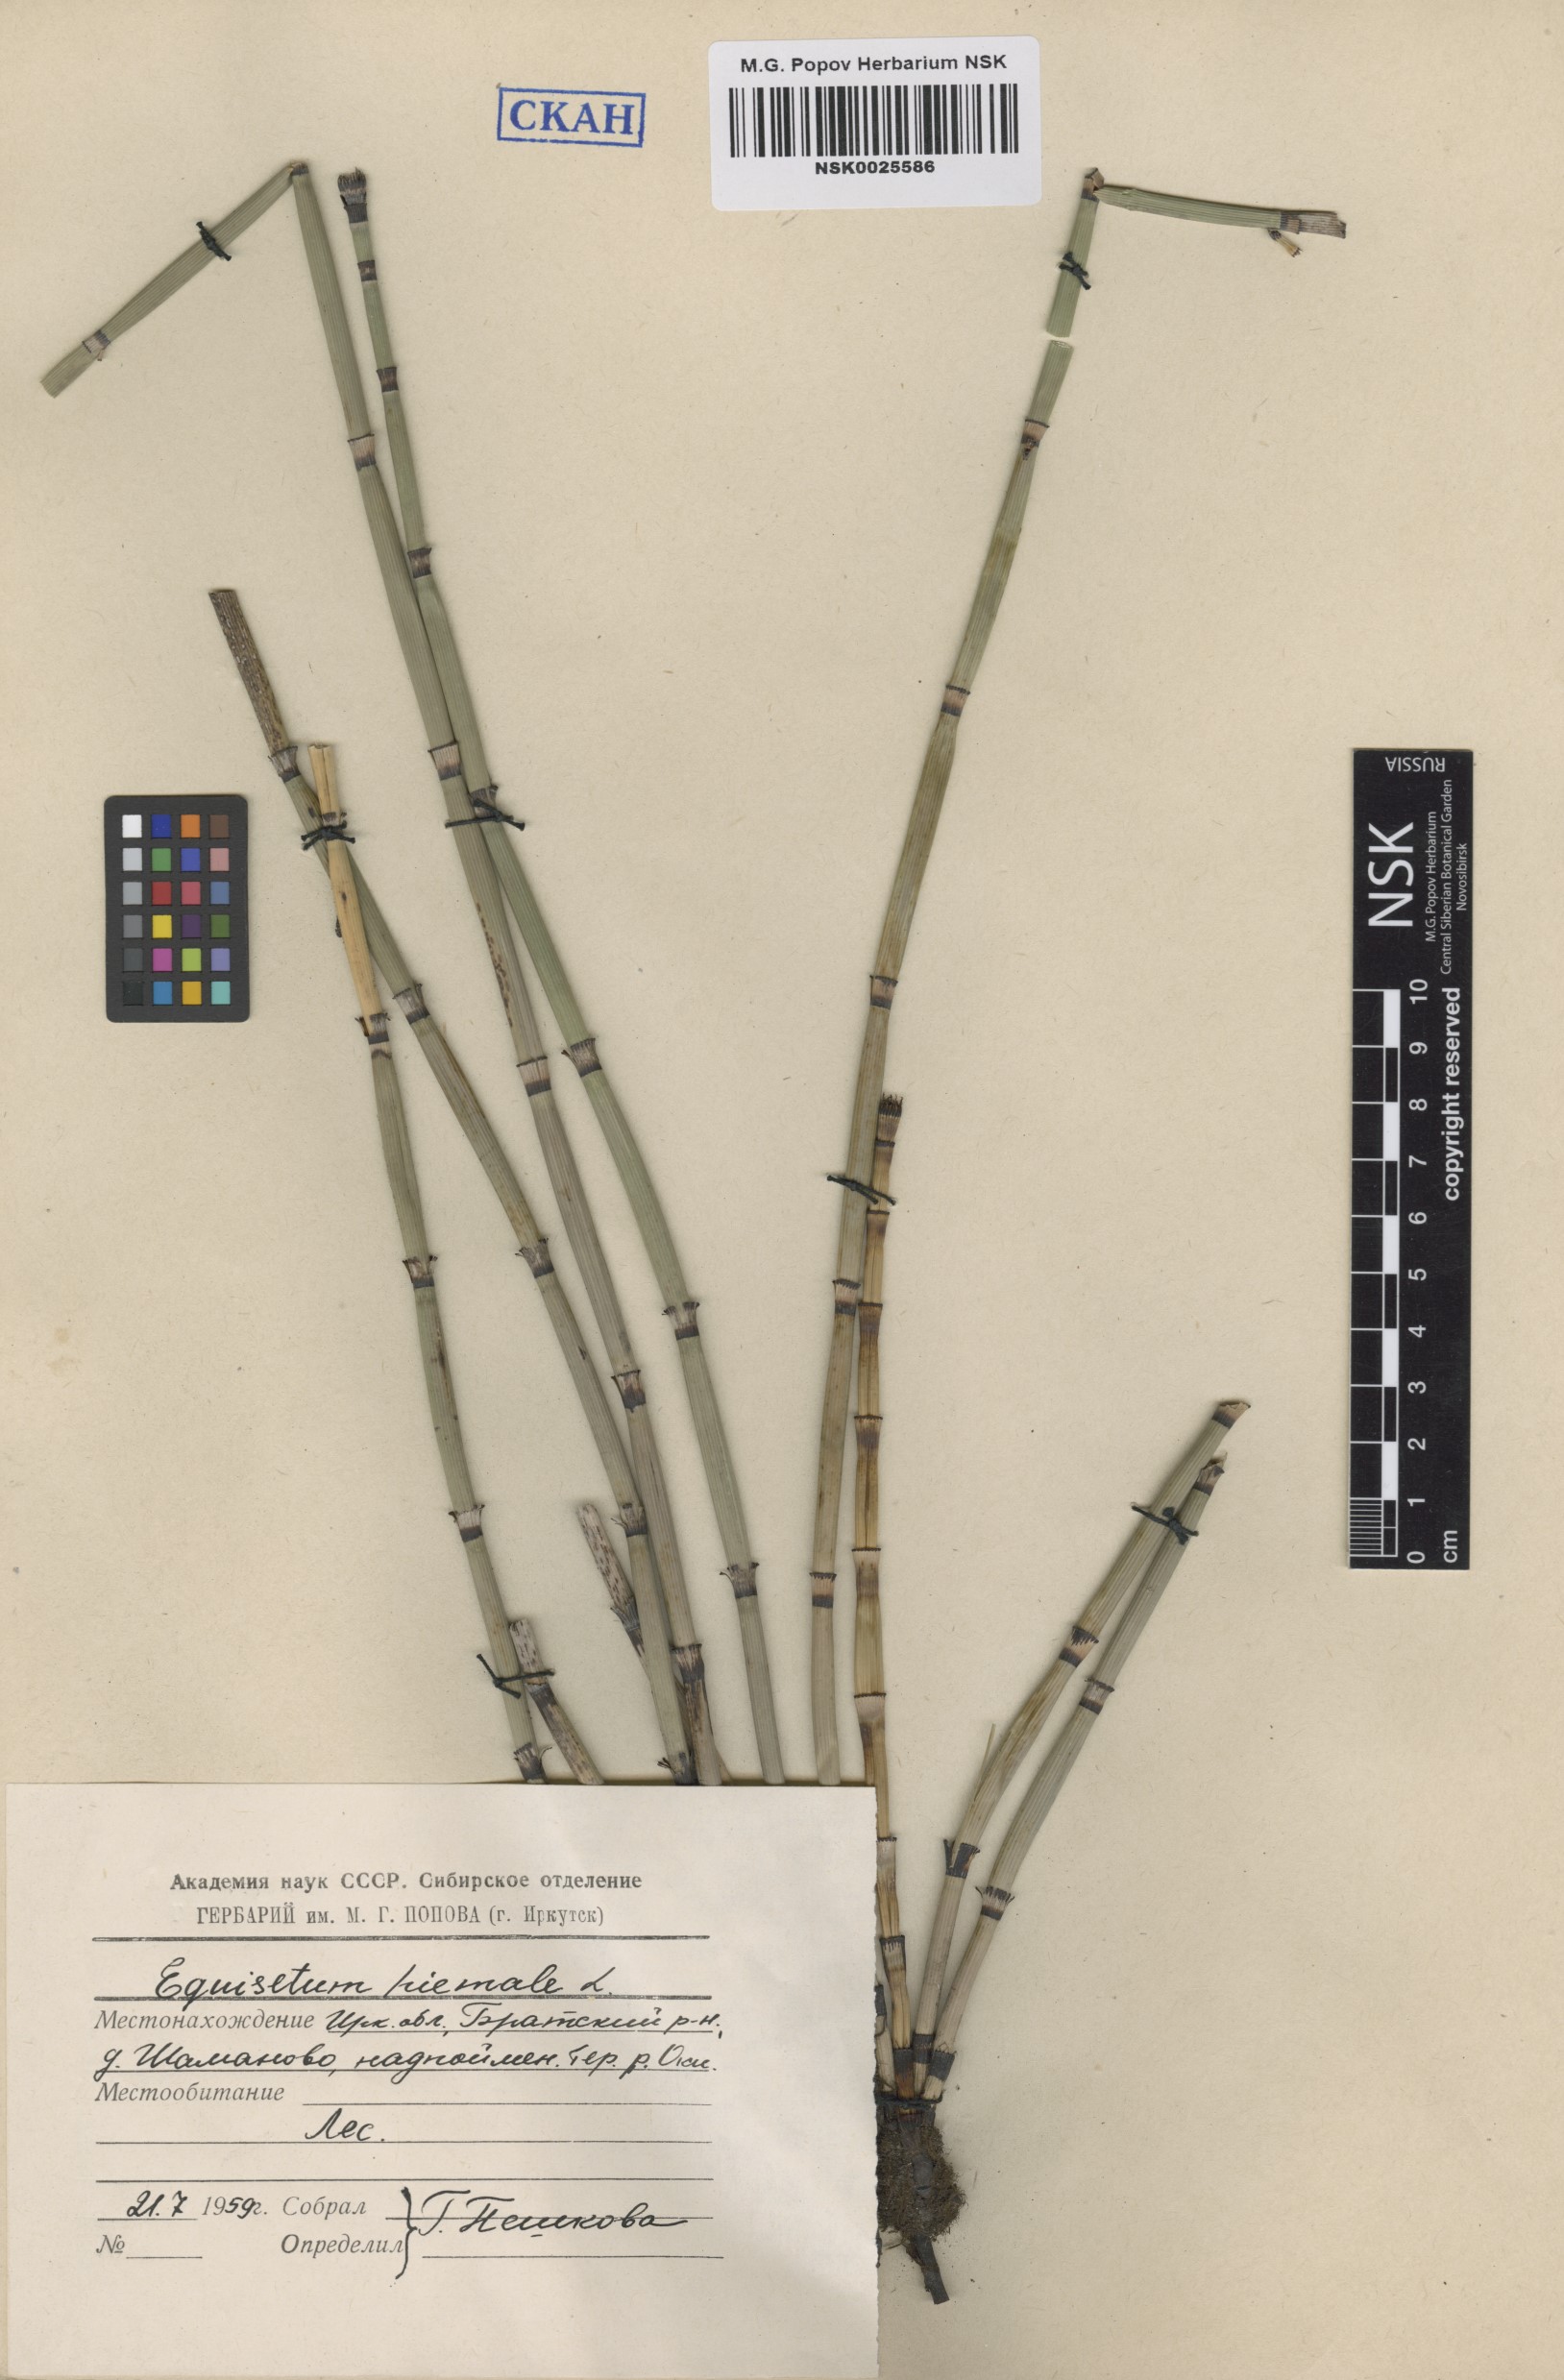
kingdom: Plantae
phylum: Tracheophyta
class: Polypodiopsida
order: Equisetales
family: Equisetaceae
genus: Equisetum
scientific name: Equisetum hyemale
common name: Rough horsetail
